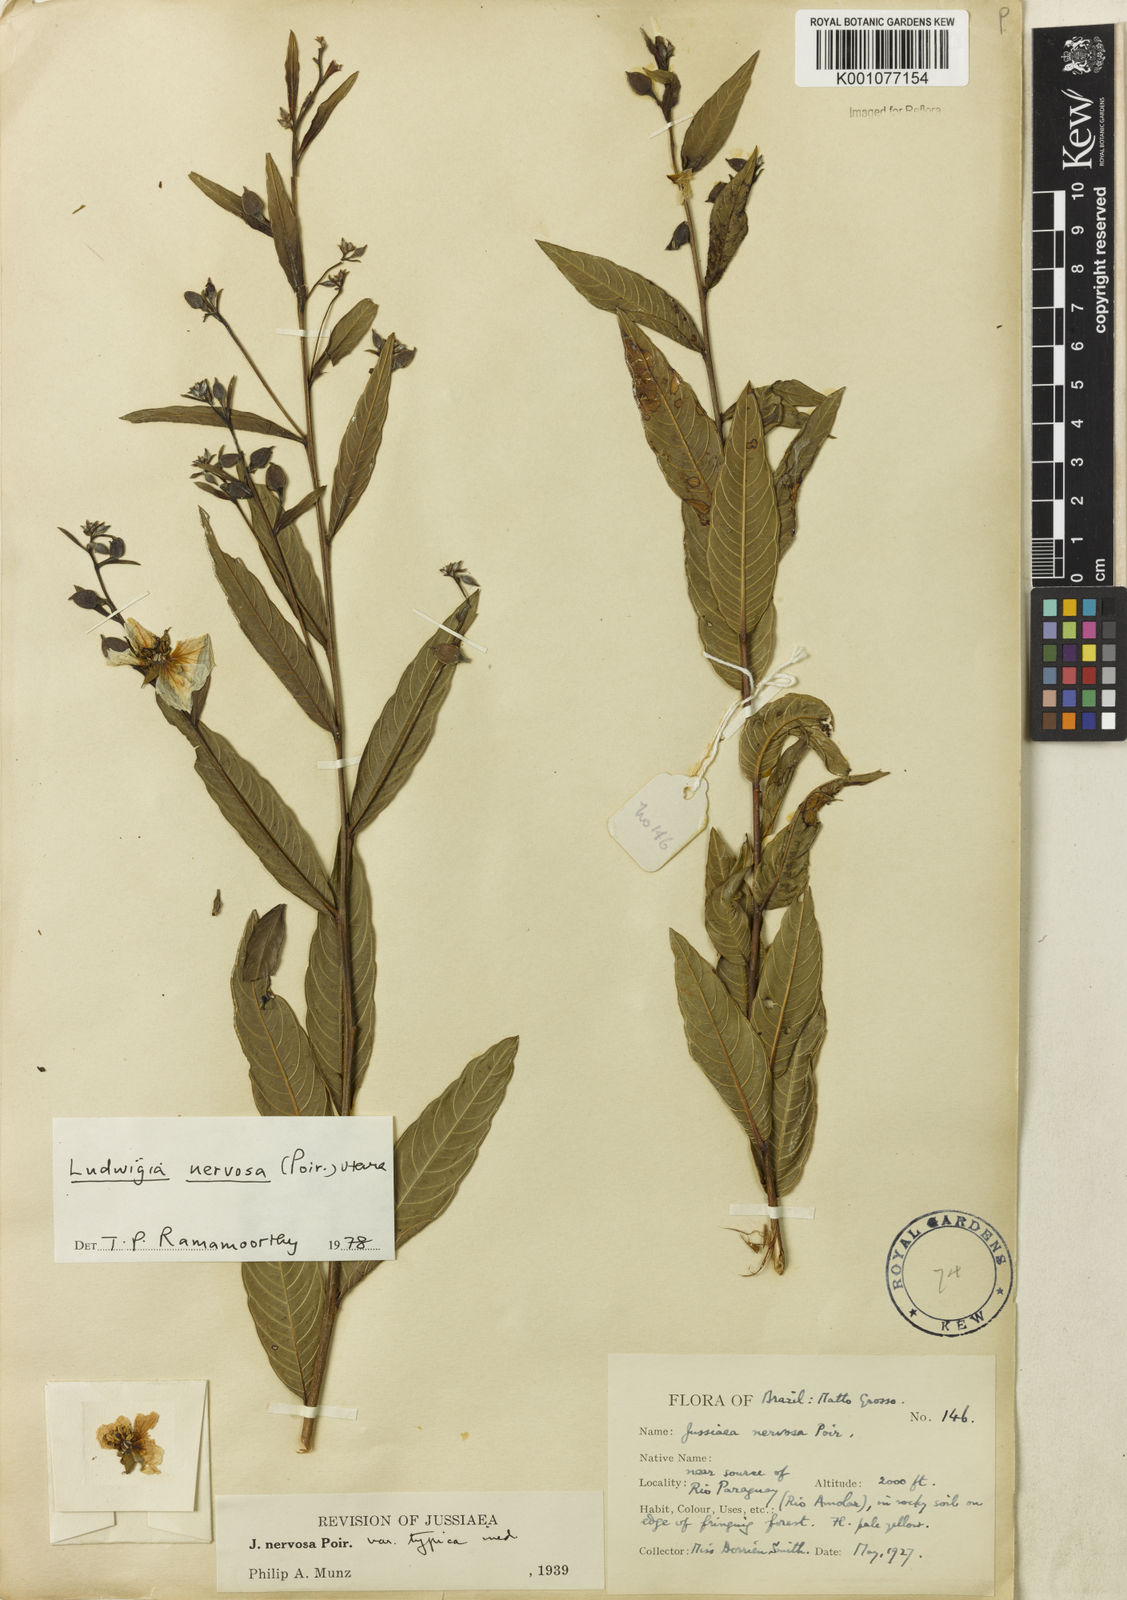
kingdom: Plantae
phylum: Tracheophyta
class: Magnoliopsida
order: Myrtales
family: Onagraceae
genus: Ludwigia
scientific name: Ludwigia nervosa
